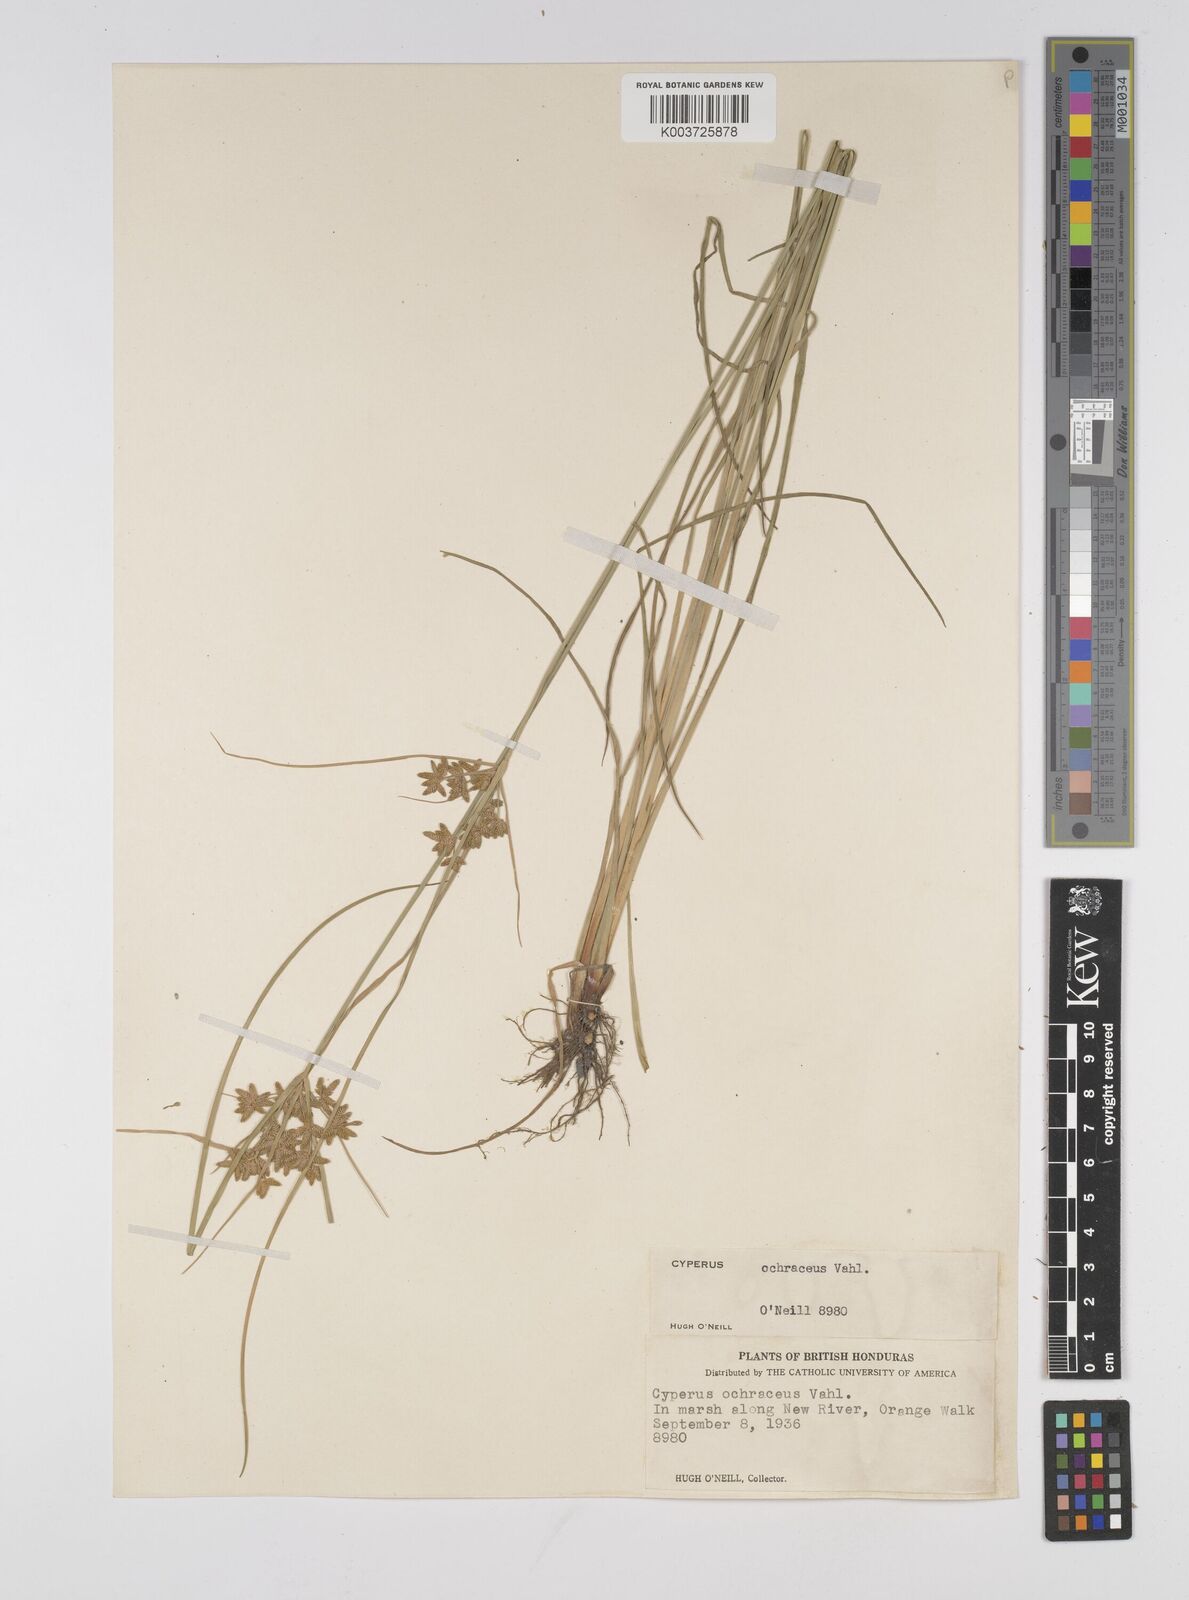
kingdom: Plantae
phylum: Tracheophyta
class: Liliopsida
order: Poales
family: Cyperaceae
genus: Cyperus
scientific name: Cyperus ochraceus
